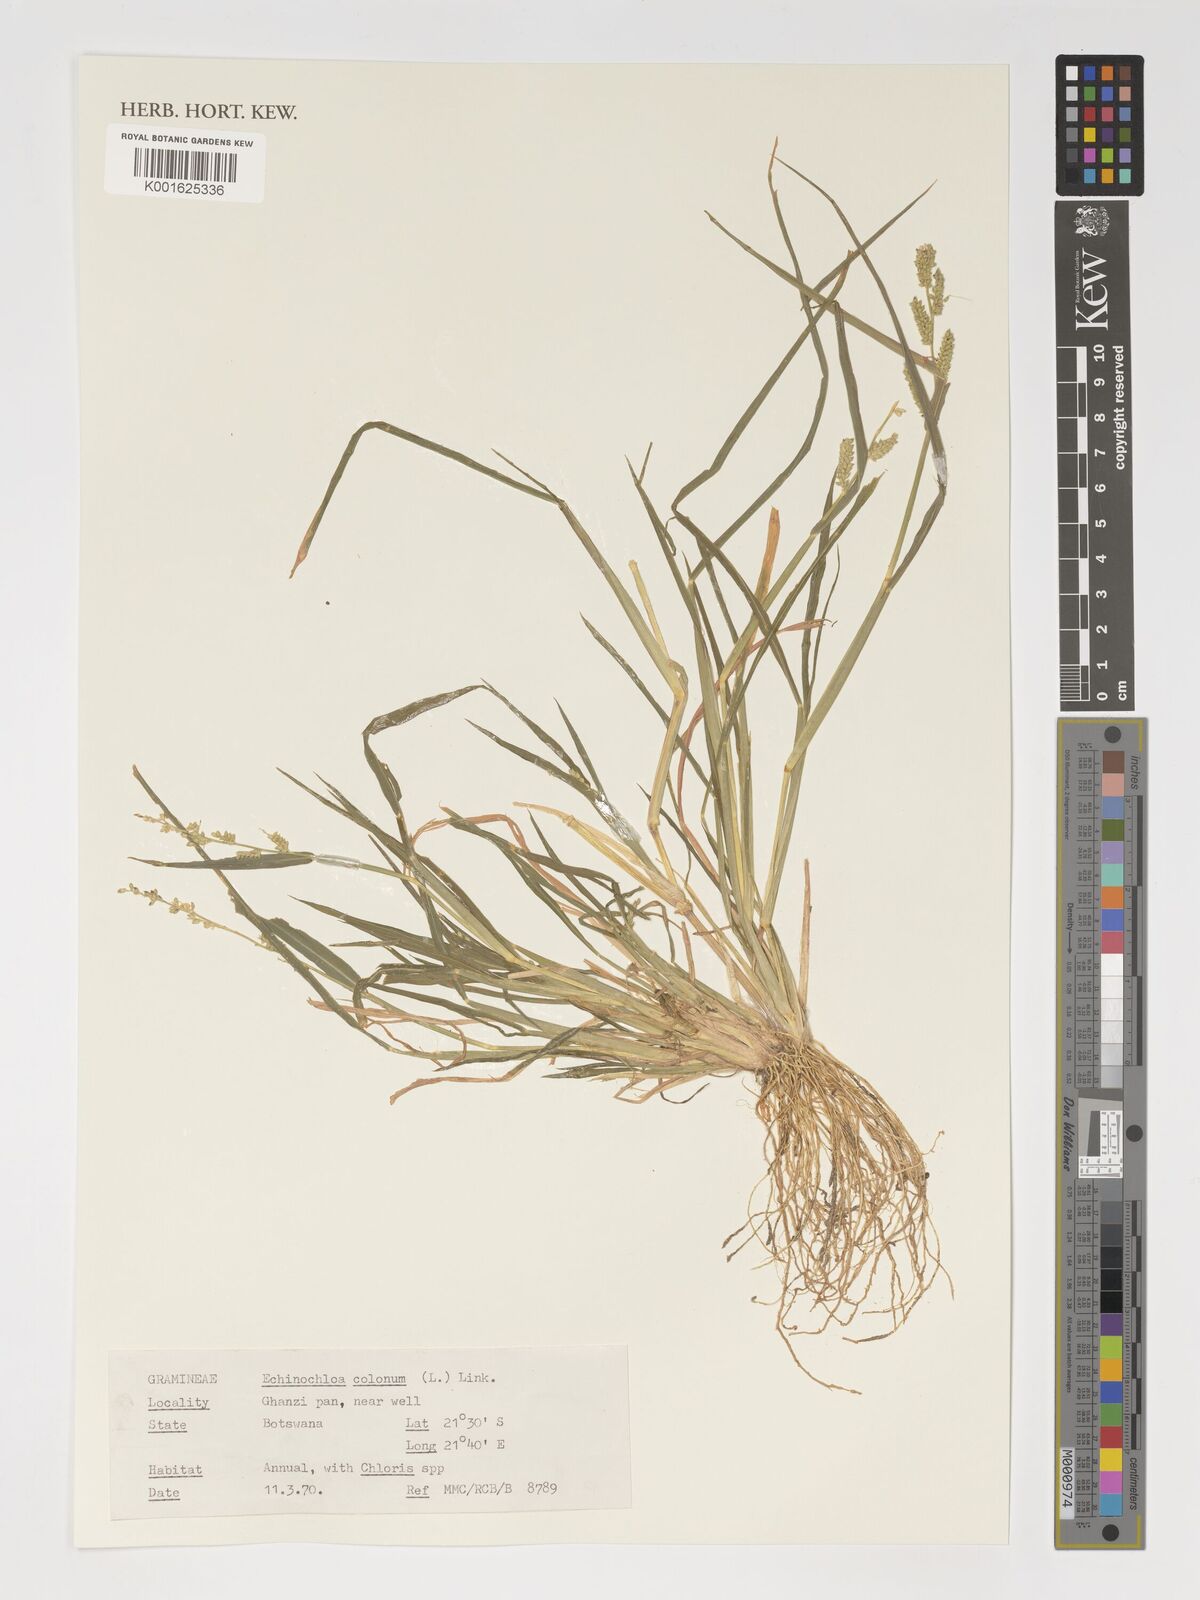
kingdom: Plantae
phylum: Tracheophyta
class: Liliopsida
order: Poales
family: Poaceae
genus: Echinochloa
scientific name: Echinochloa colonum
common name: Jungle rice
